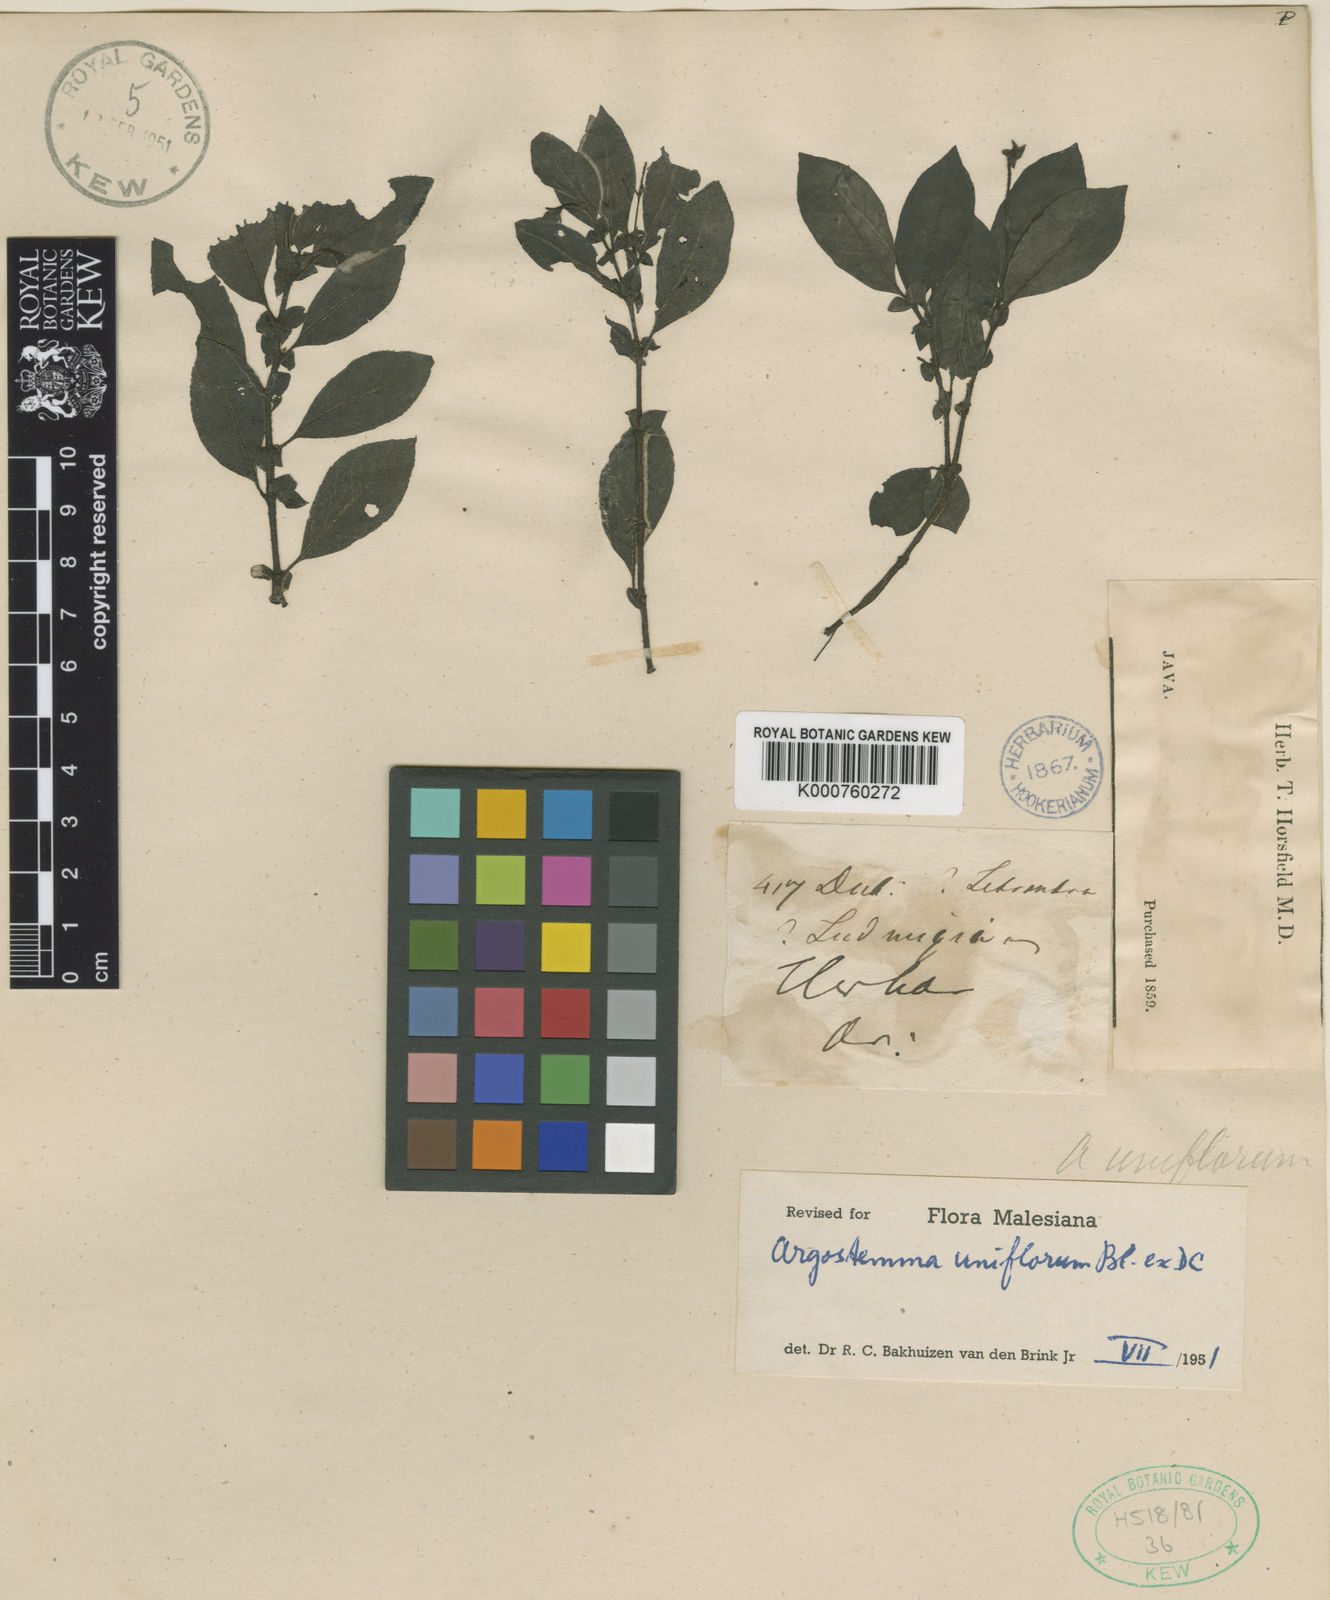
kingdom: Plantae
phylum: Tracheophyta
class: Magnoliopsida
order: Gentianales
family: Rubiaceae
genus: Argostemma
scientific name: Argostemma uniflorum
